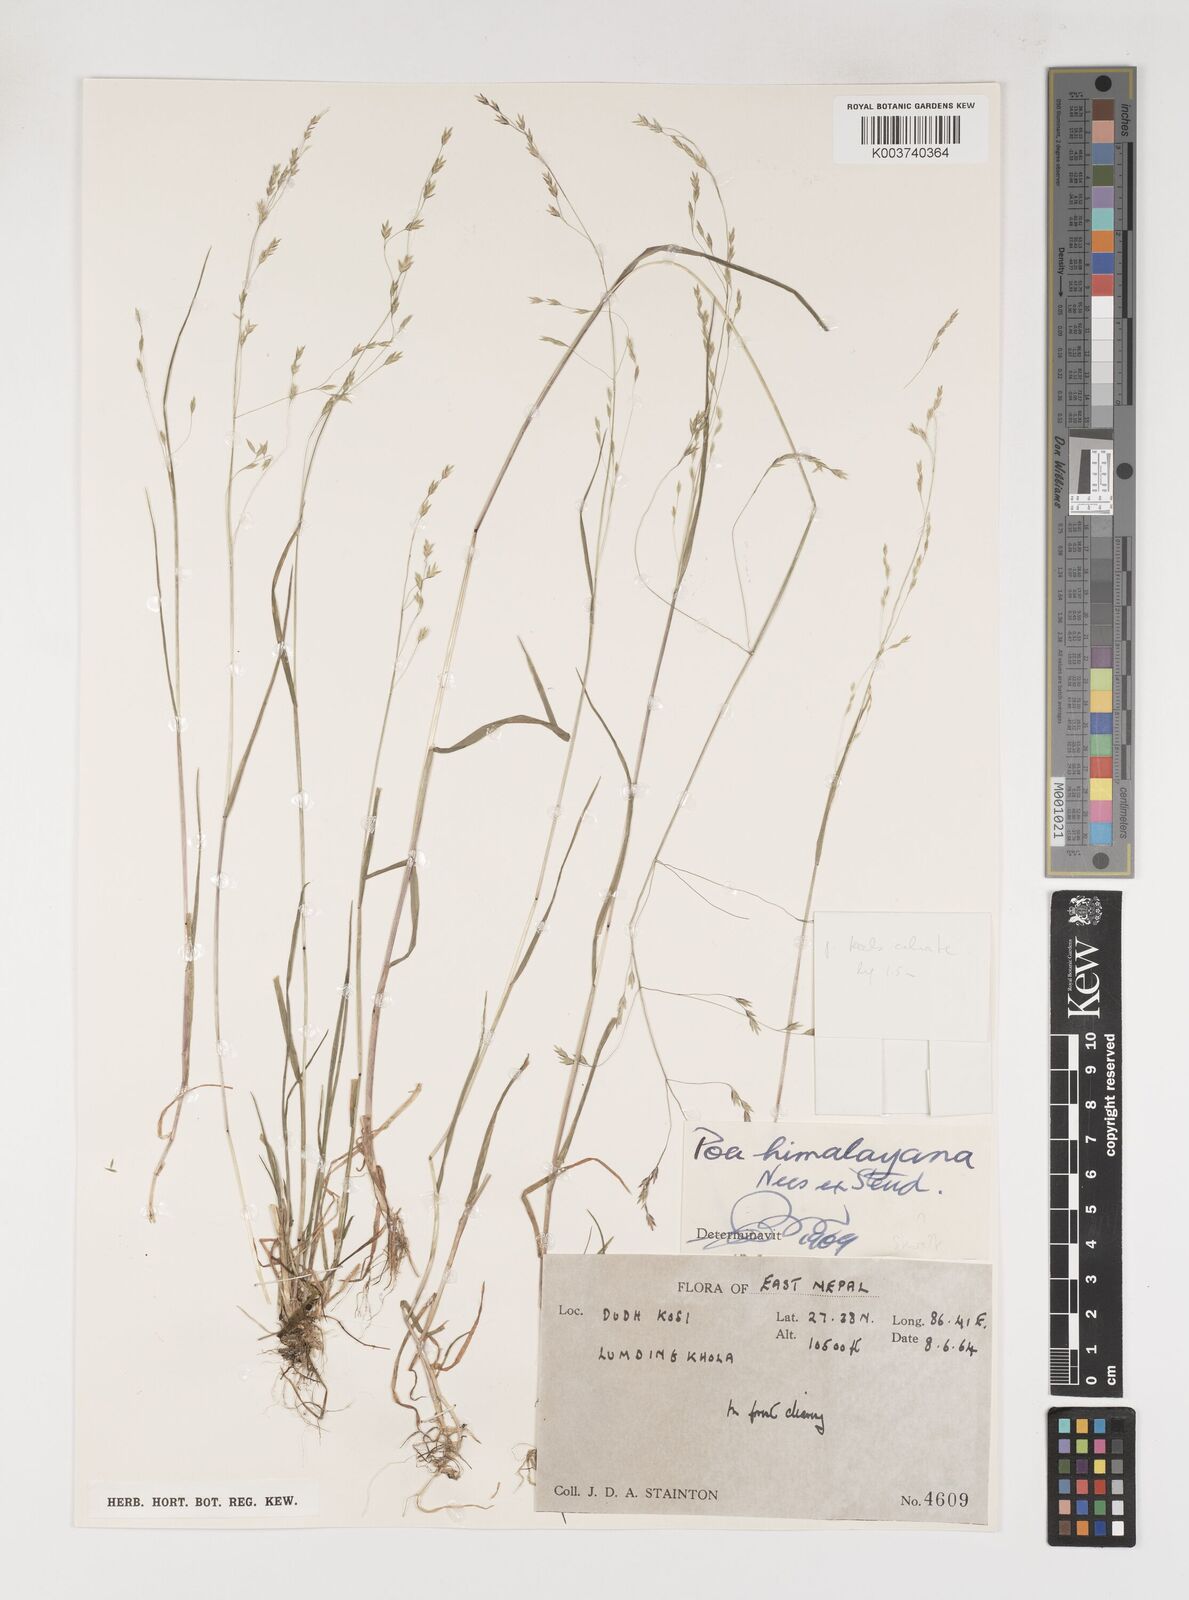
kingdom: Plantae
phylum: Tracheophyta
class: Liliopsida
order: Poales
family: Poaceae
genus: Poa
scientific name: Poa himalayana
